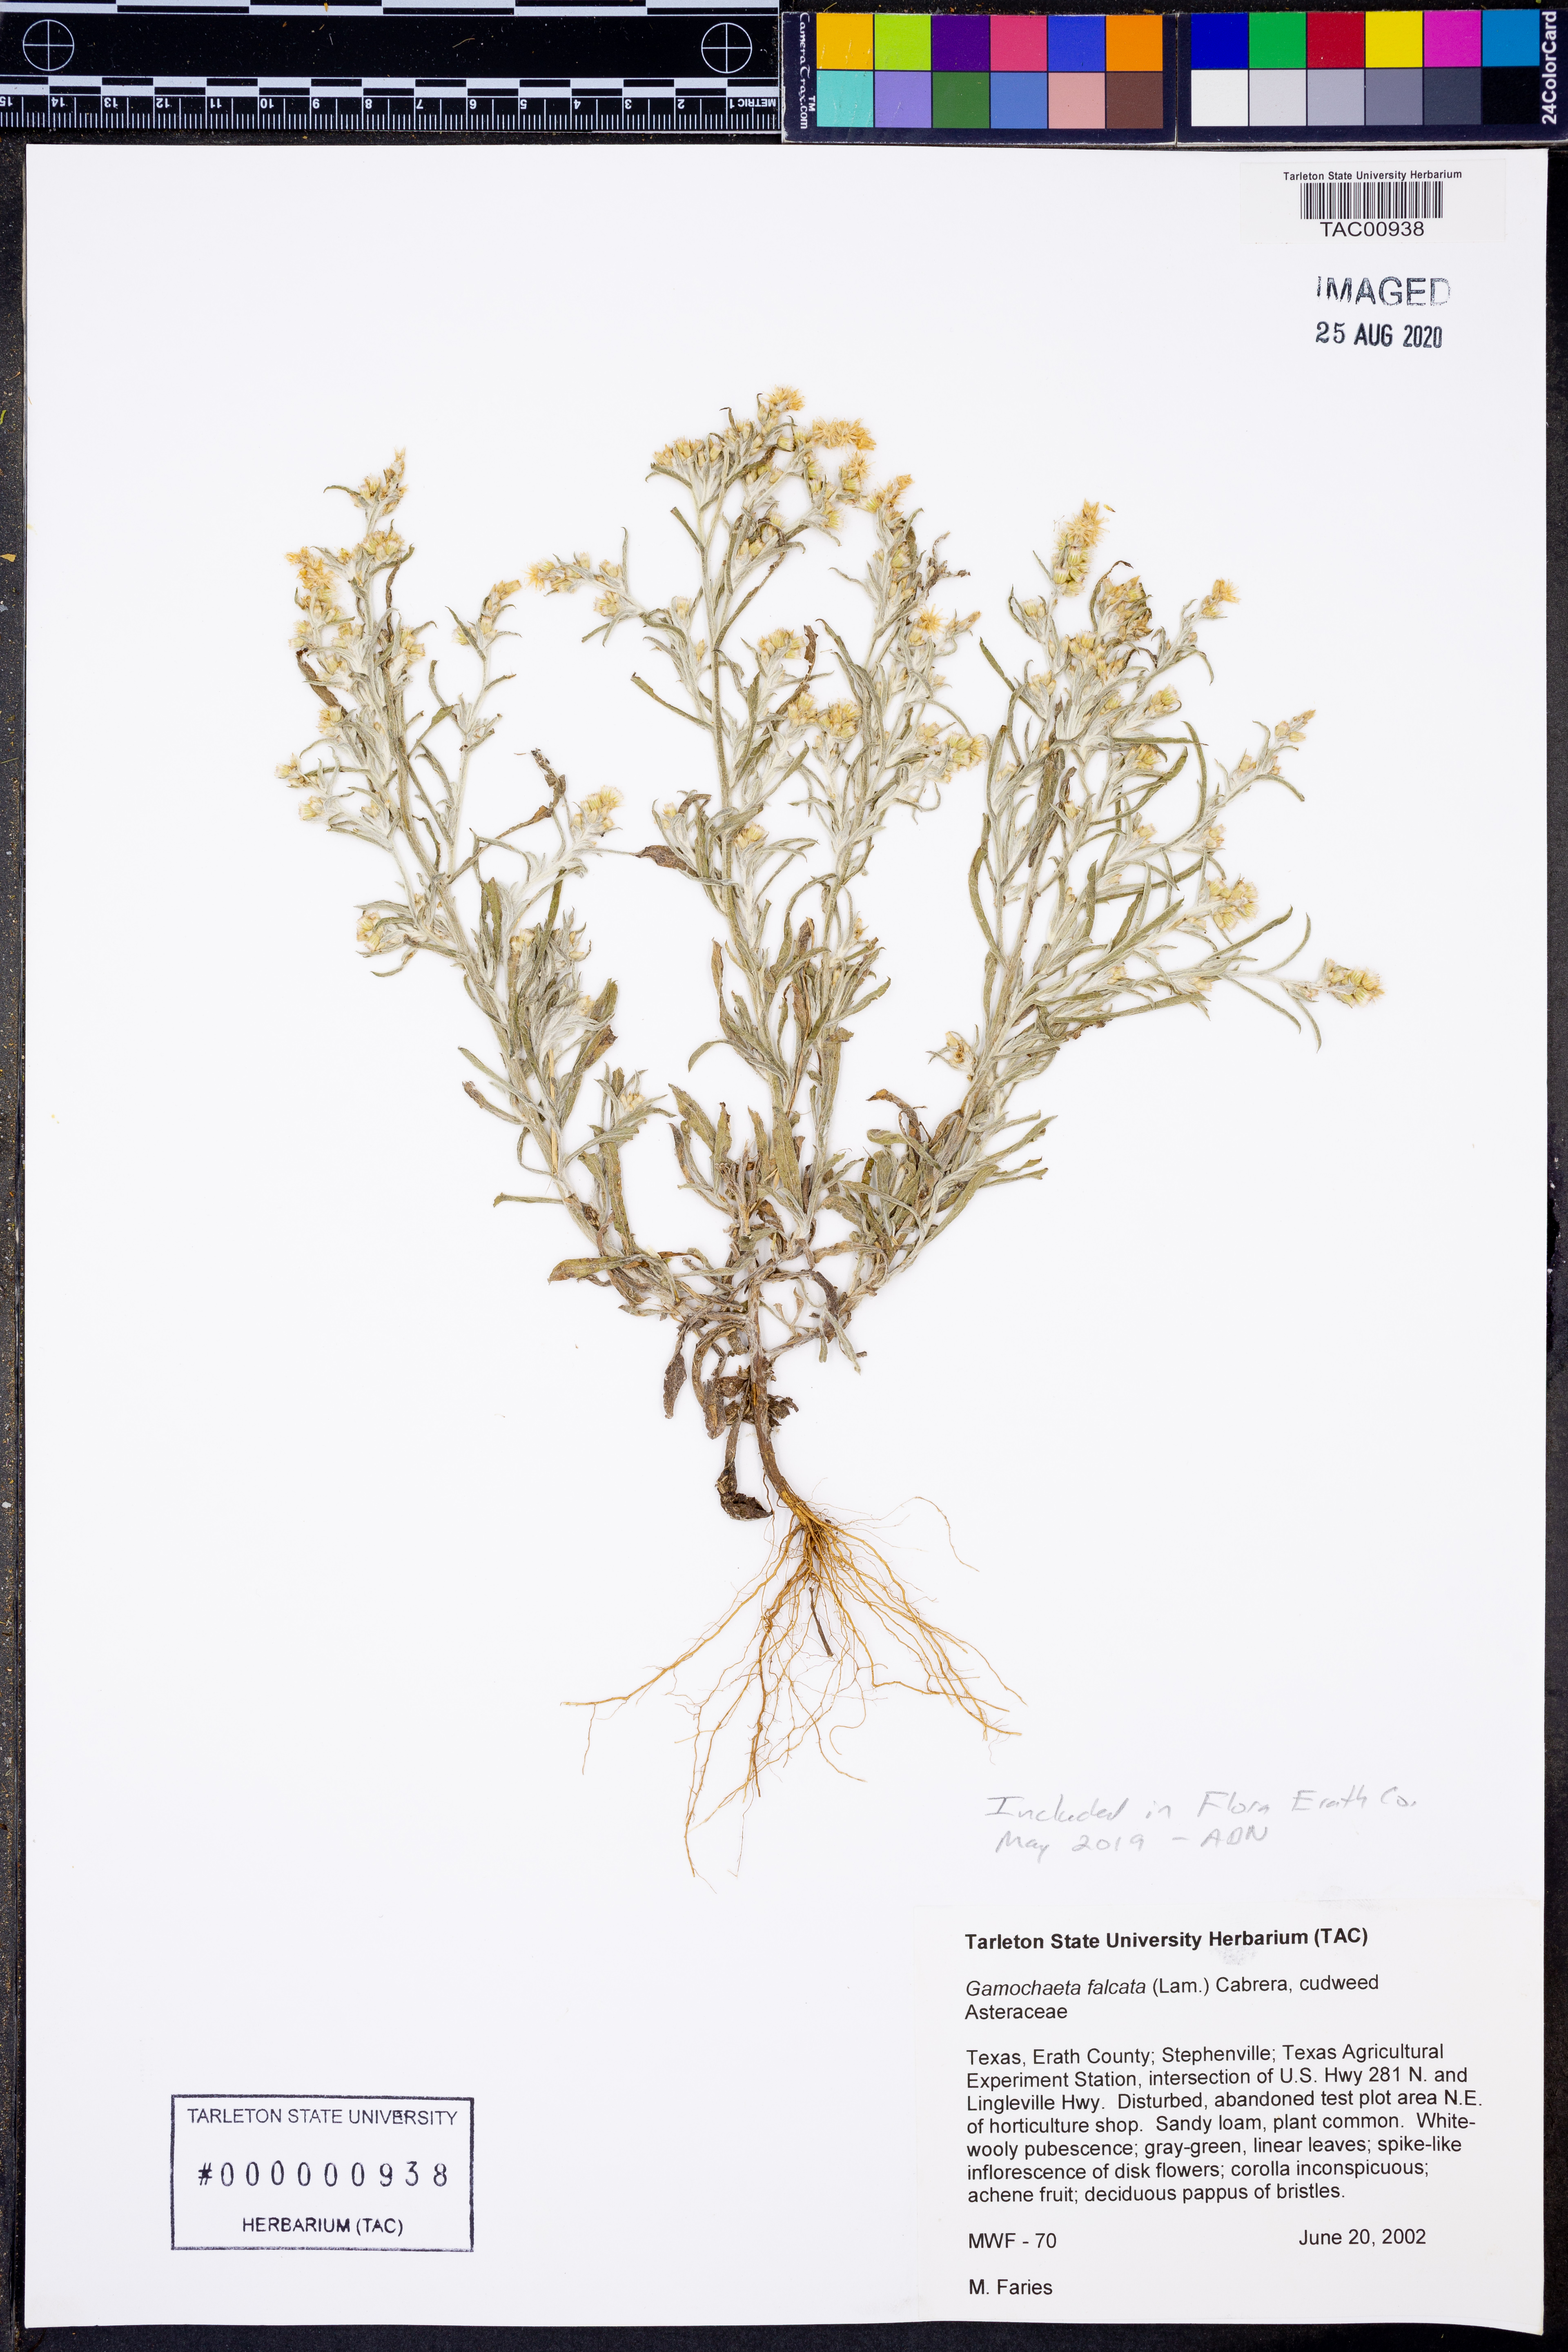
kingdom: Plantae
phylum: Tracheophyta
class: Magnoliopsida
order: Asterales
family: Asteraceae
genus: Gamochaeta
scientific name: Gamochaeta falcata
